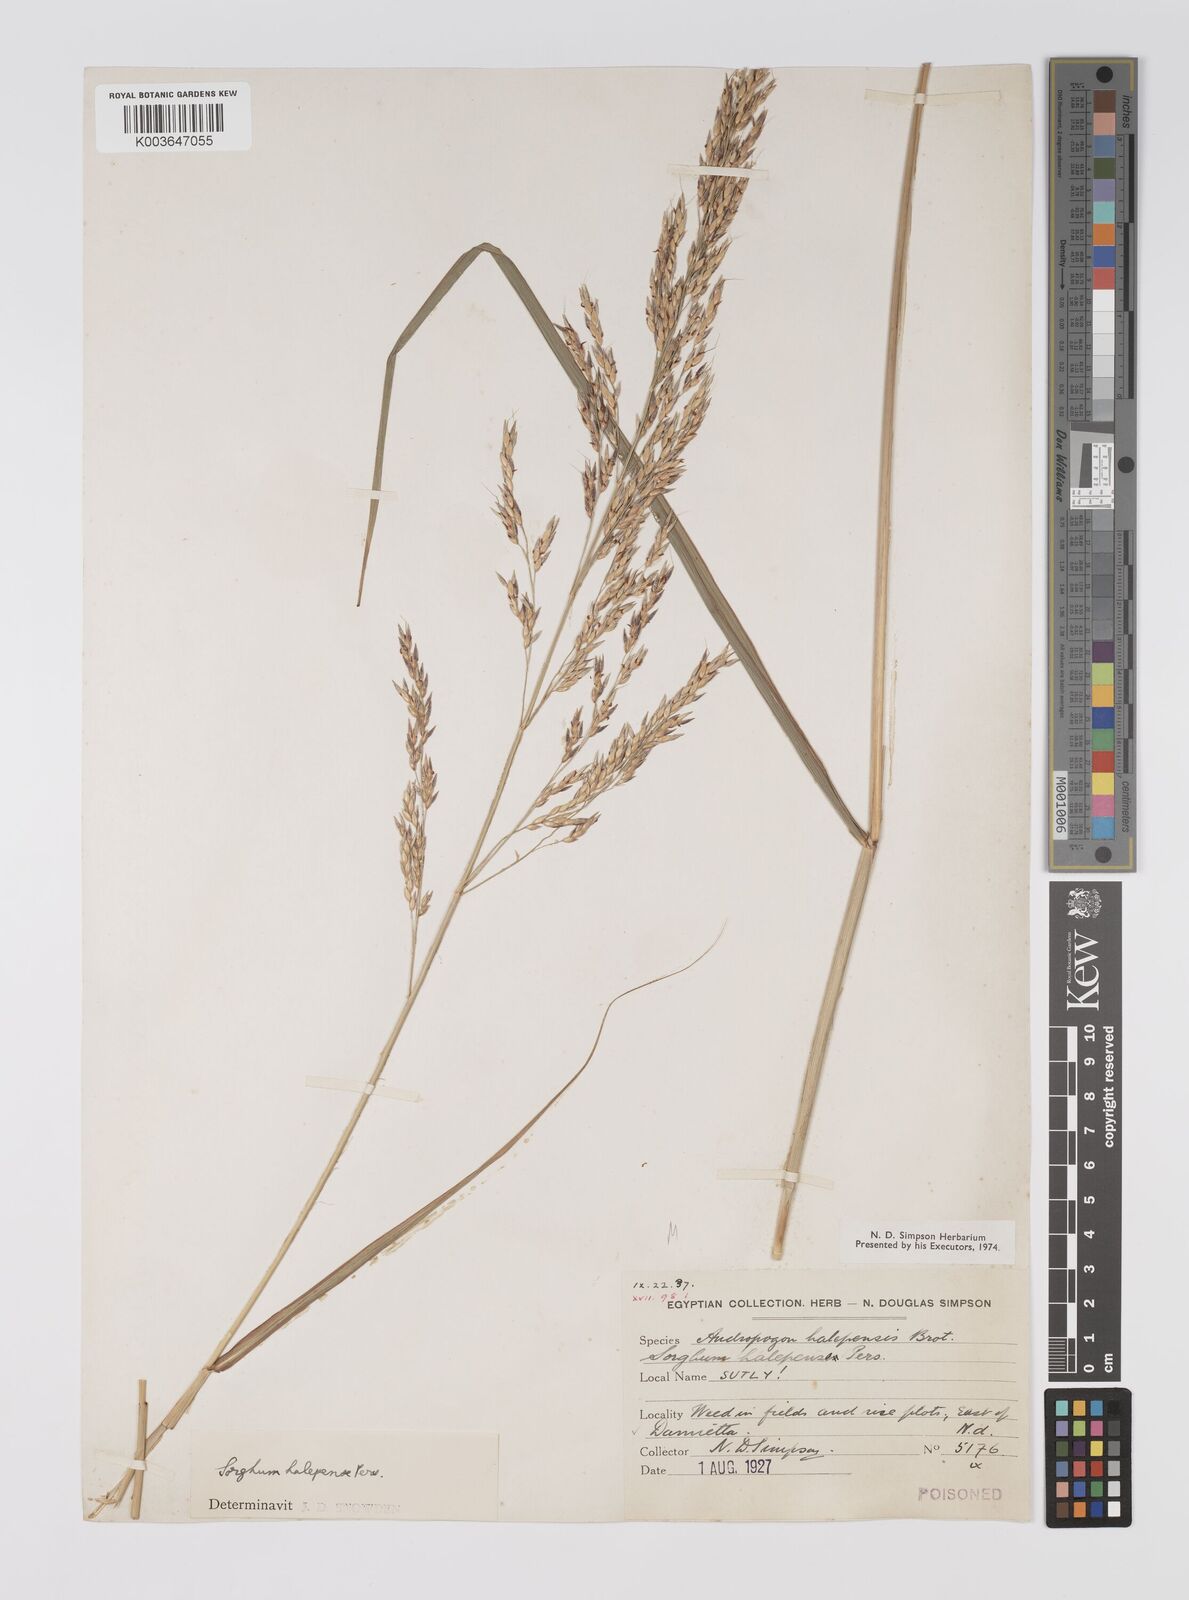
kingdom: Plantae
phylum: Tracheophyta
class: Liliopsida
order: Poales
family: Poaceae
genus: Sorghum
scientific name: Sorghum halepense
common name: Johnson-grass
